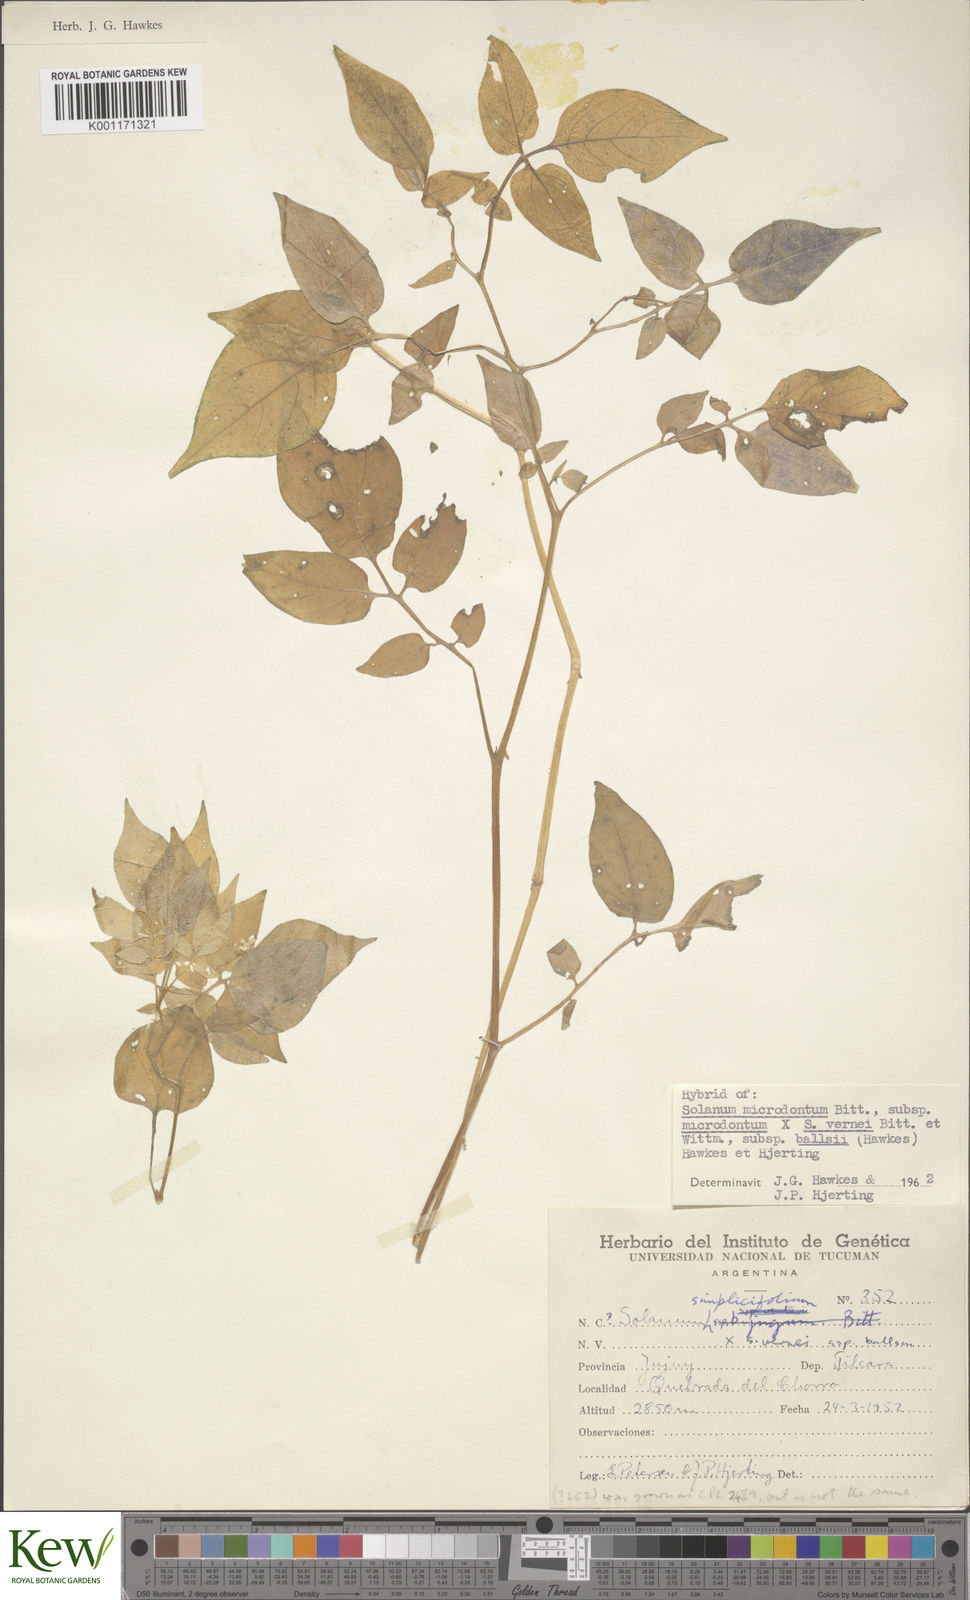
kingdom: Plantae
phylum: Tracheophyta
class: Magnoliopsida
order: Solanales
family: Solanaceae
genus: Solanum
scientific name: Solanum microdontum
